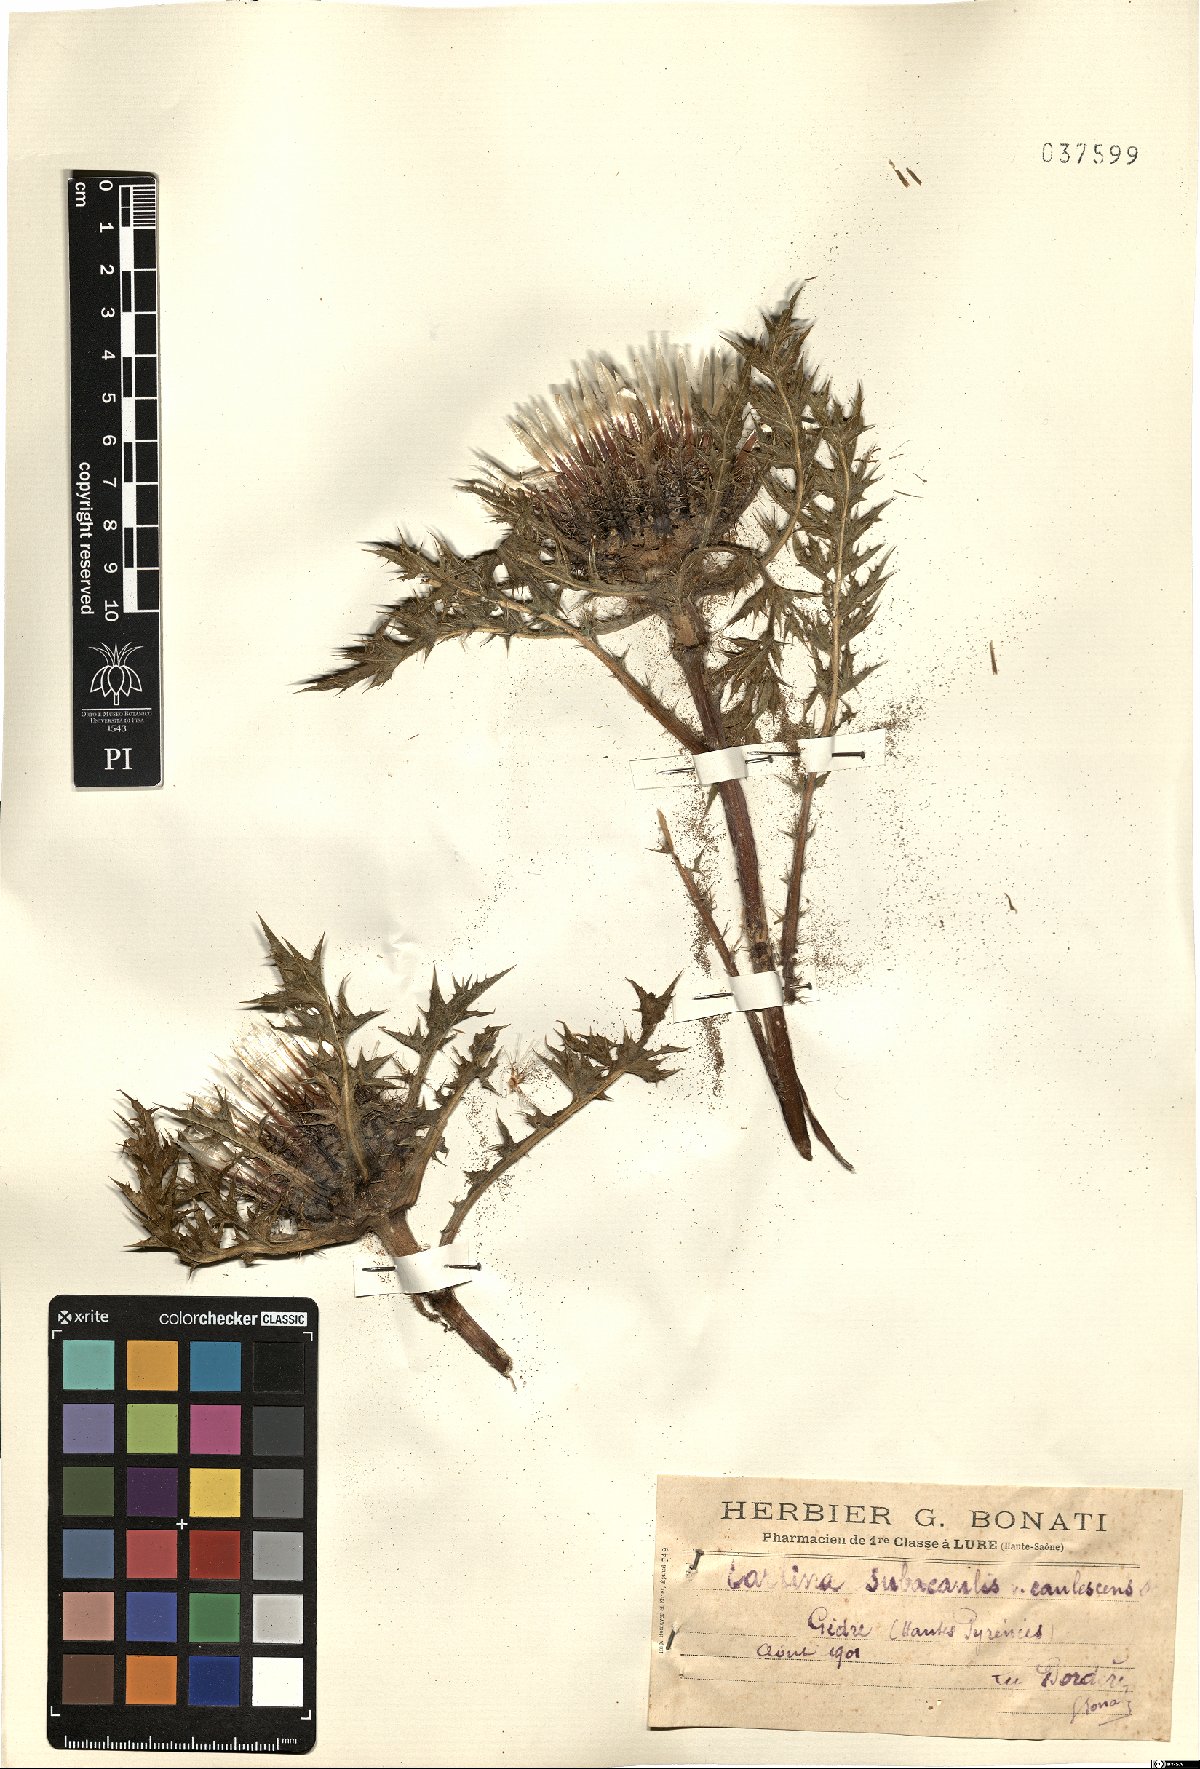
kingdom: Plantae
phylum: Tracheophyta
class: Magnoliopsida
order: Asterales
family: Asteraceae
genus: Carlina
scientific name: Carlina acaulis
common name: Stemless carline thistle
